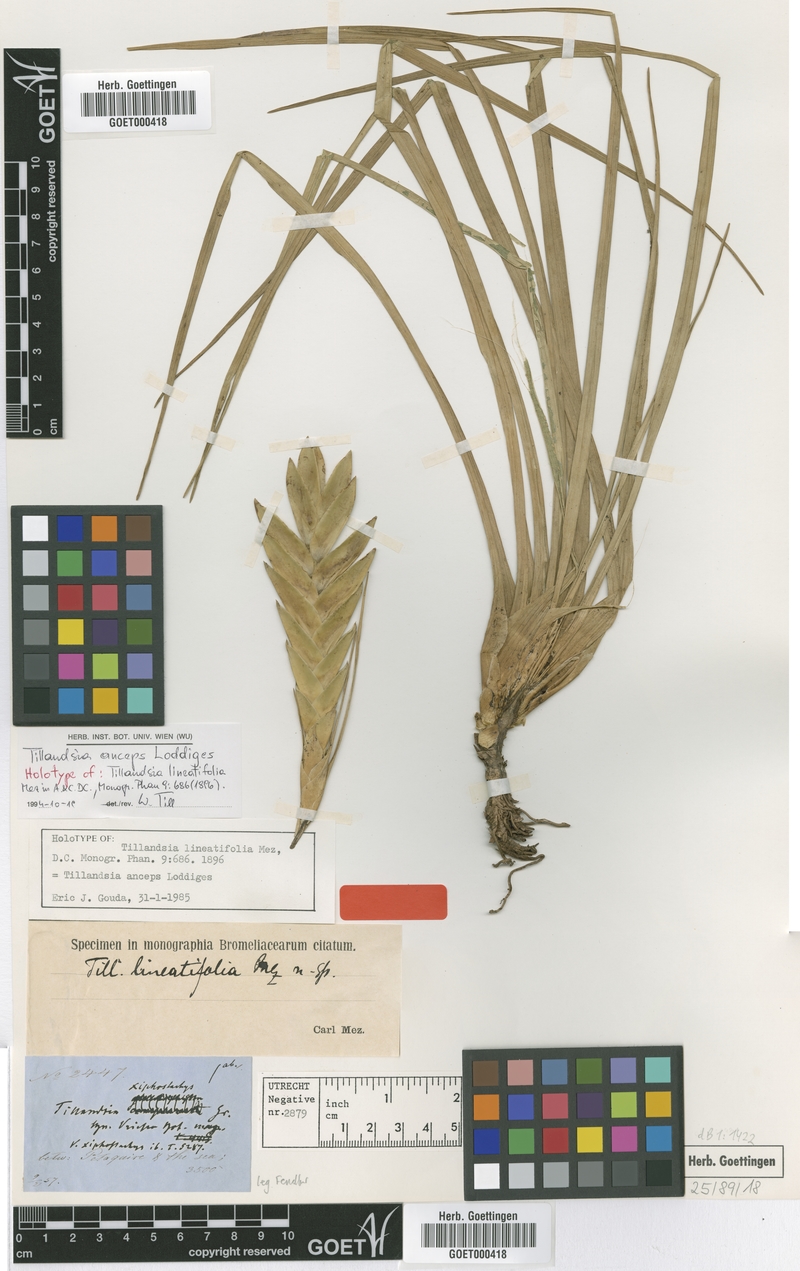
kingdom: Plantae
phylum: Tracheophyta
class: Liliopsida
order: Poales
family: Bromeliaceae
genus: Wallisia
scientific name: Wallisia anceps
